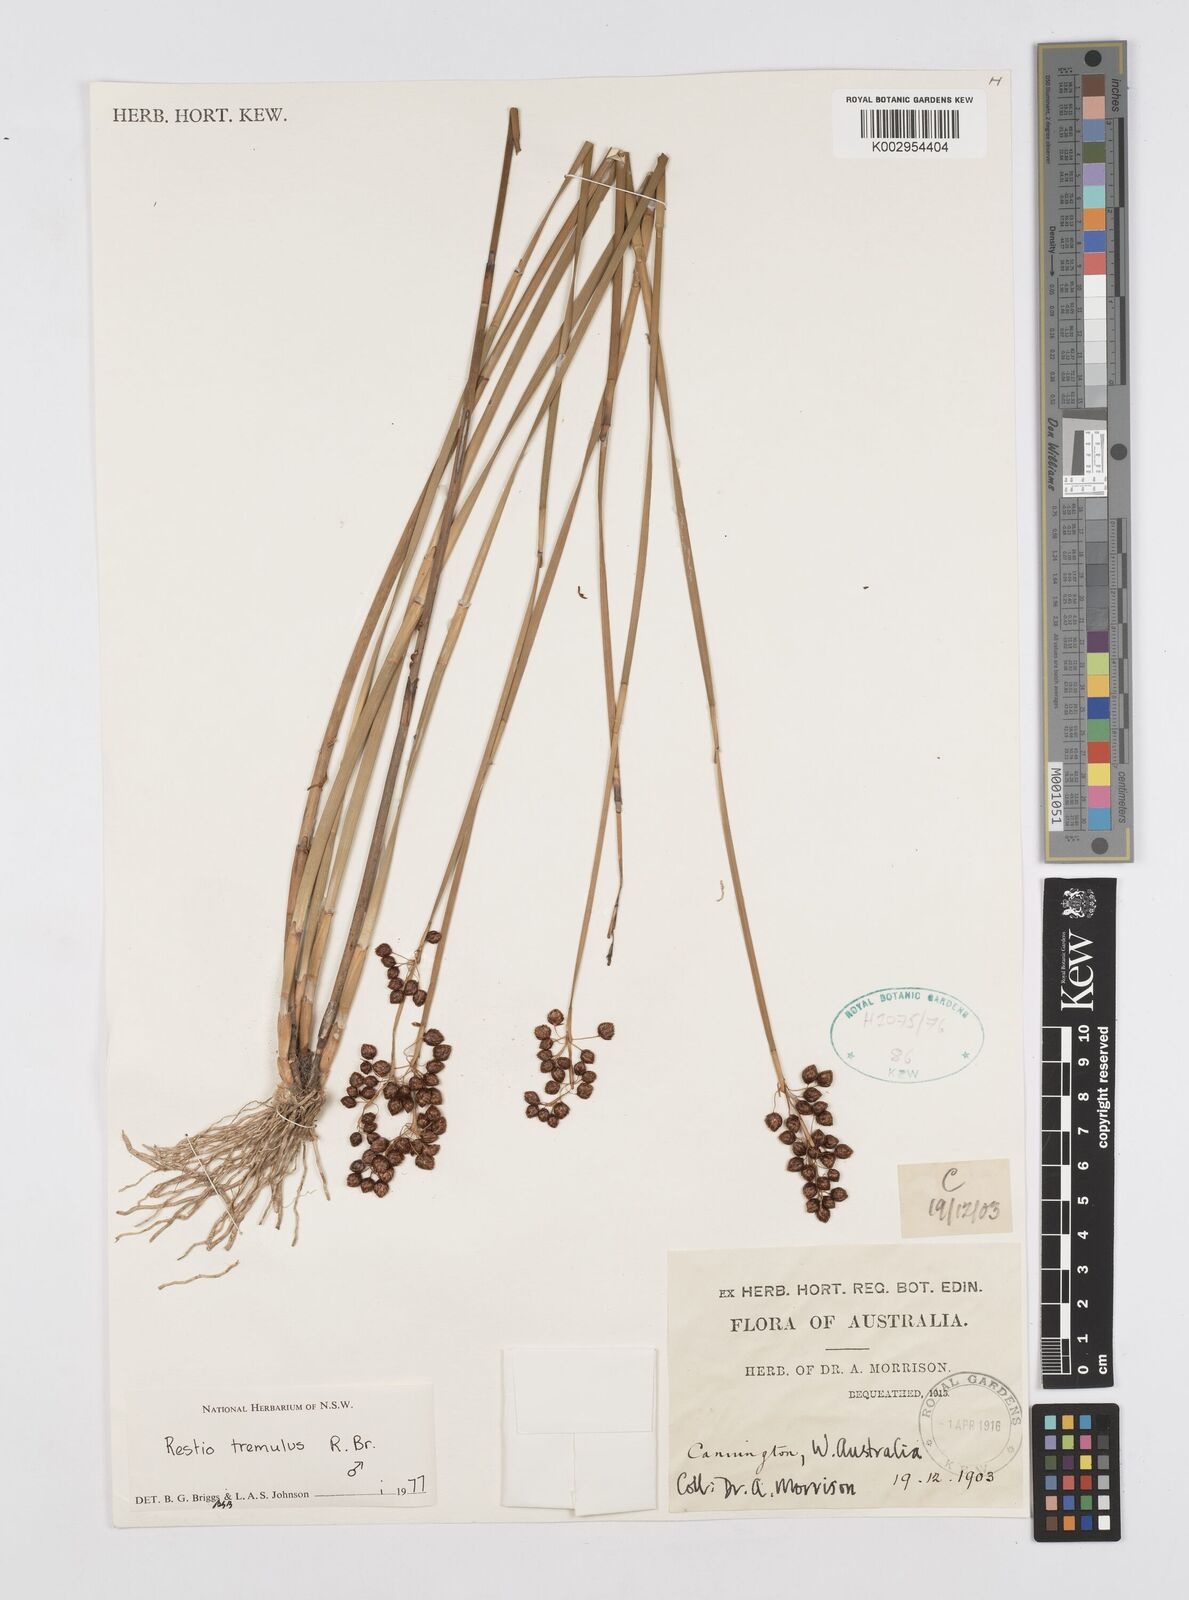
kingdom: Plantae
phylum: Tracheophyta
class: Liliopsida
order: Poales
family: Restionaceae
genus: Tremulina
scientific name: Tremulina tremula
